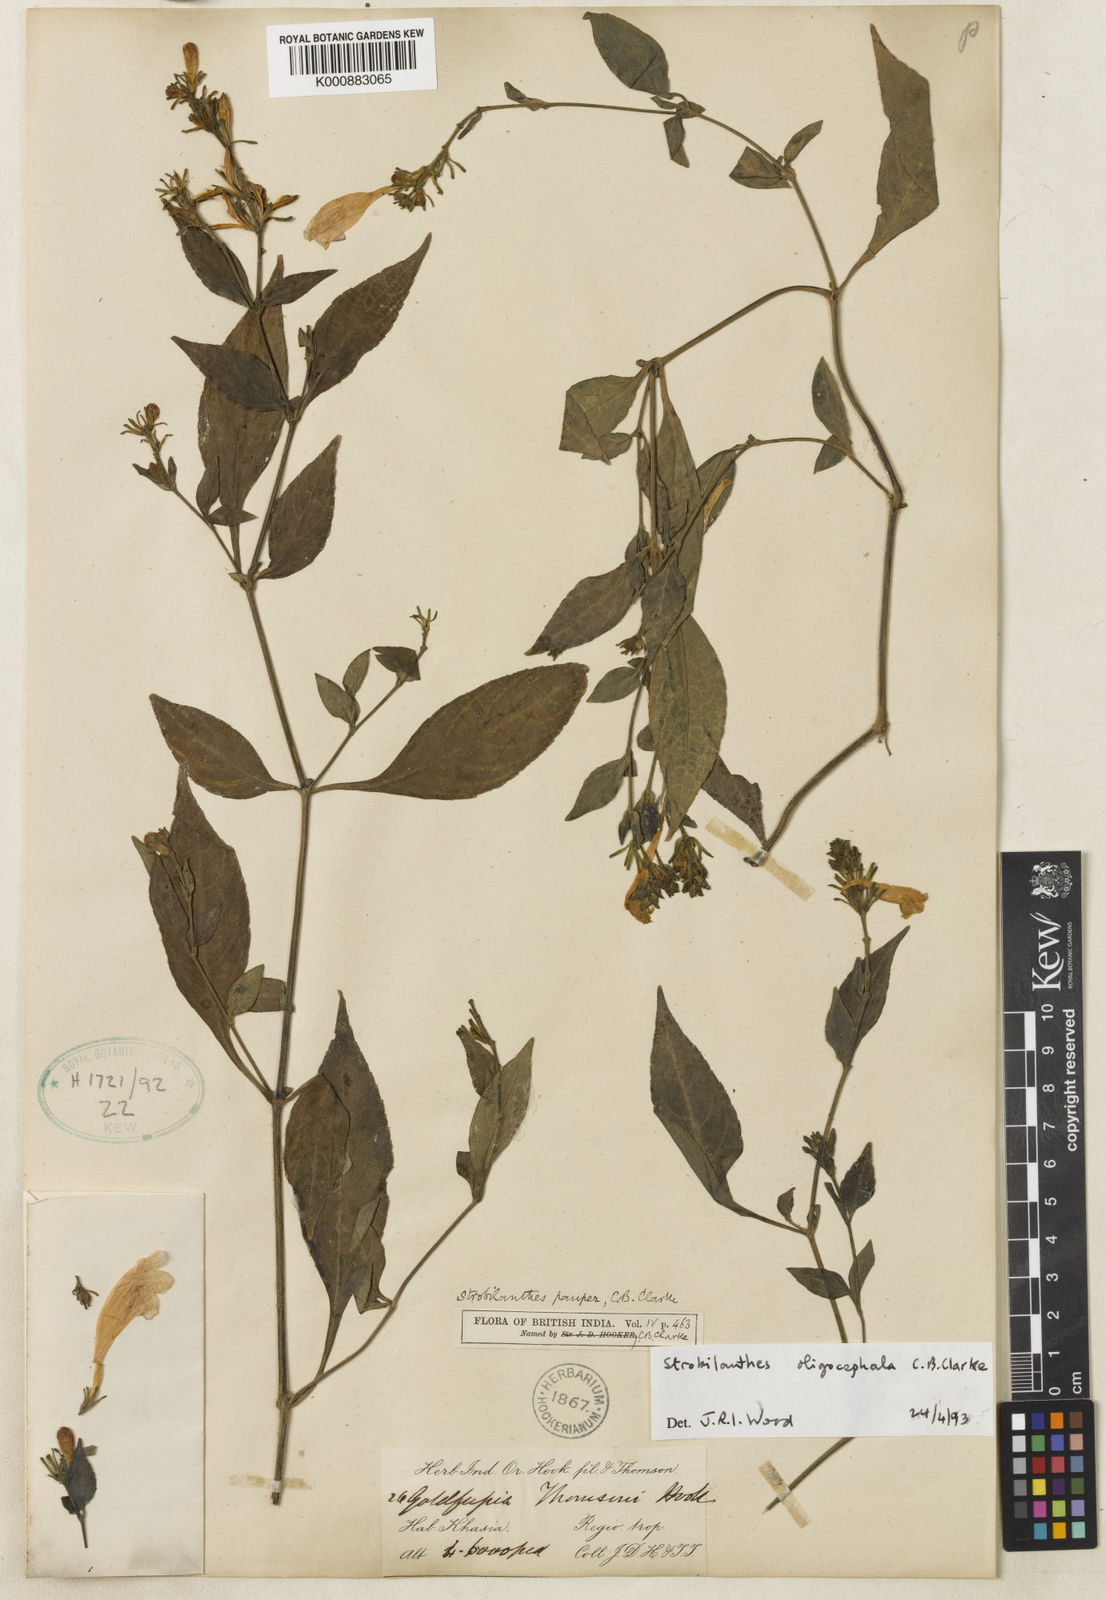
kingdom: Plantae
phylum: Tracheophyta
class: Magnoliopsida
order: Lamiales
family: Acanthaceae
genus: Strobilanthes
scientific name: Strobilanthes oligocephala
